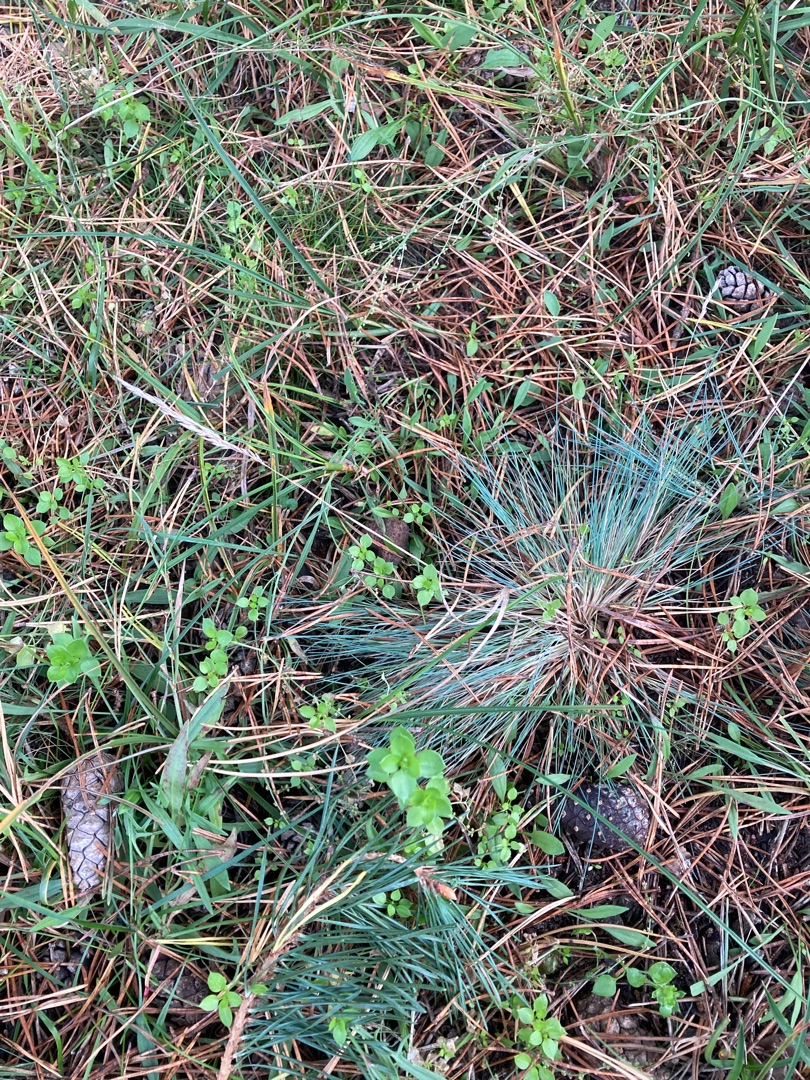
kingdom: Plantae
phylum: Tracheophyta
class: Liliopsida
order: Poales
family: Poaceae
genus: Corynephorus
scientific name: Corynephorus canescens
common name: Sandskæg
